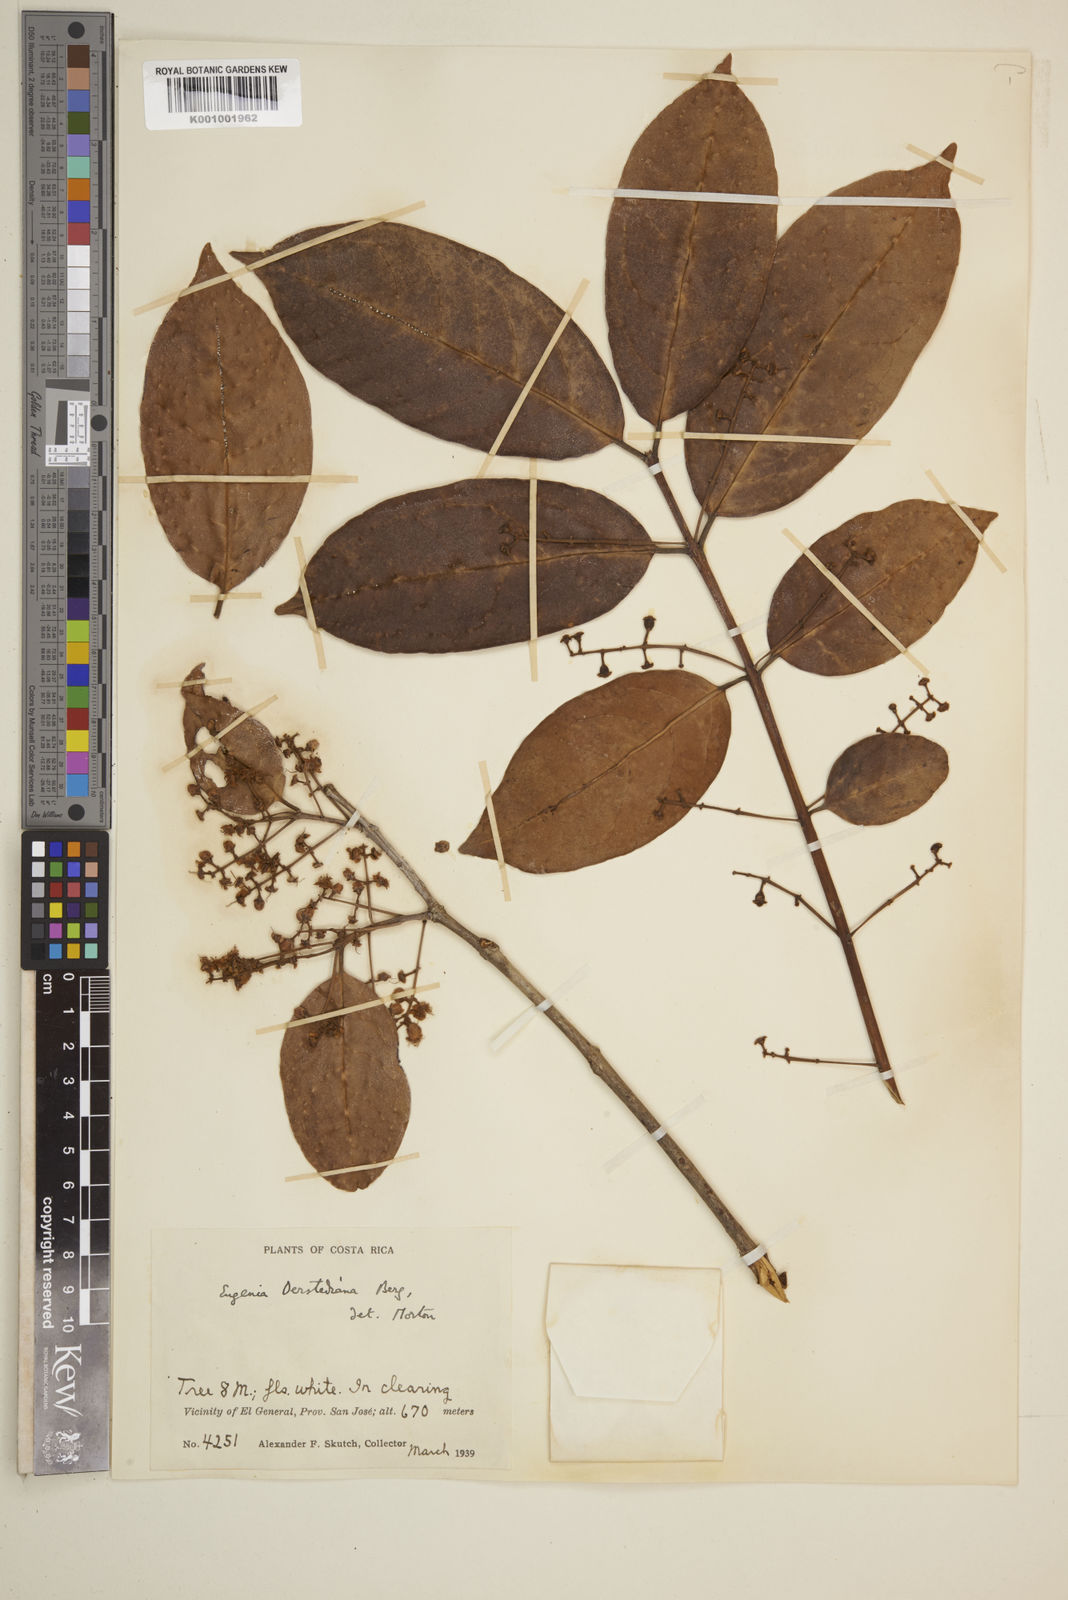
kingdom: Plantae
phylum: Tracheophyta
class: Magnoliopsida
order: Myrtales
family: Myrtaceae
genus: Eugenia
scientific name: Eugenia oerstediana
